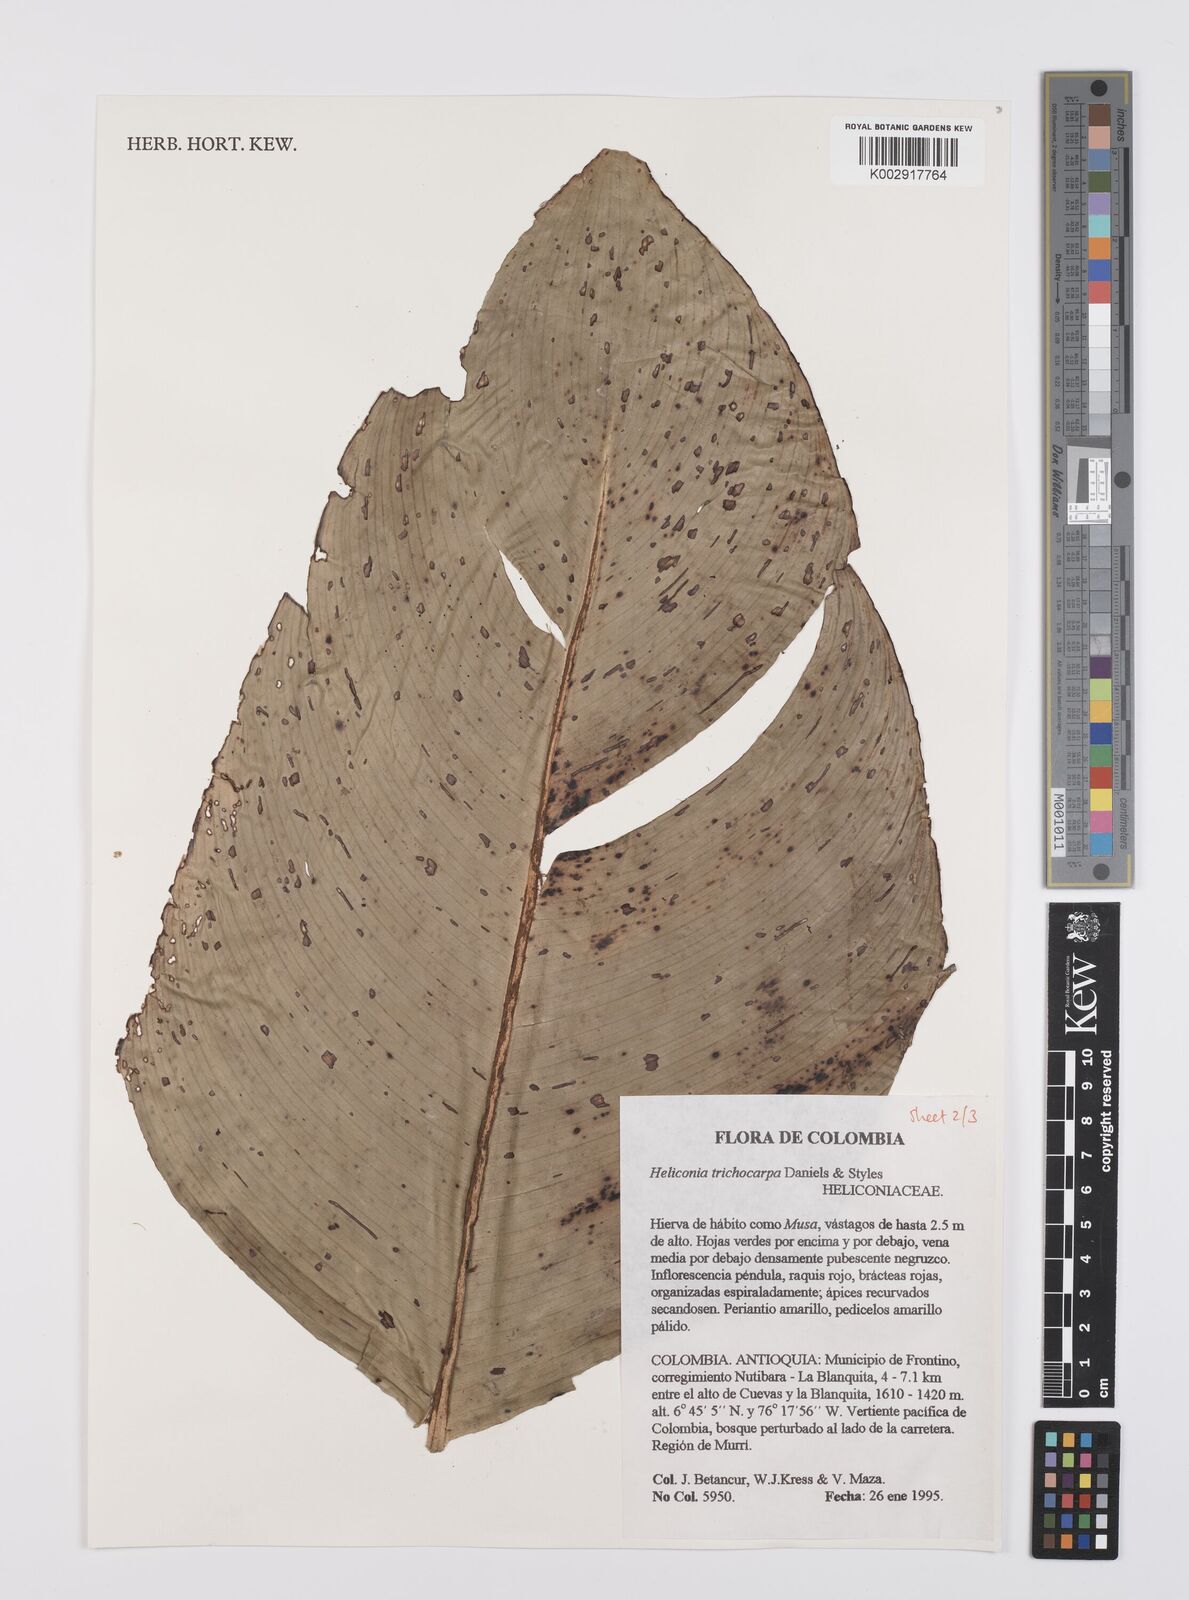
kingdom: Plantae
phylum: Tracheophyta
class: Liliopsida
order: Zingiberales
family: Heliconiaceae
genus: Heliconia
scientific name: Heliconia trichocarpa
